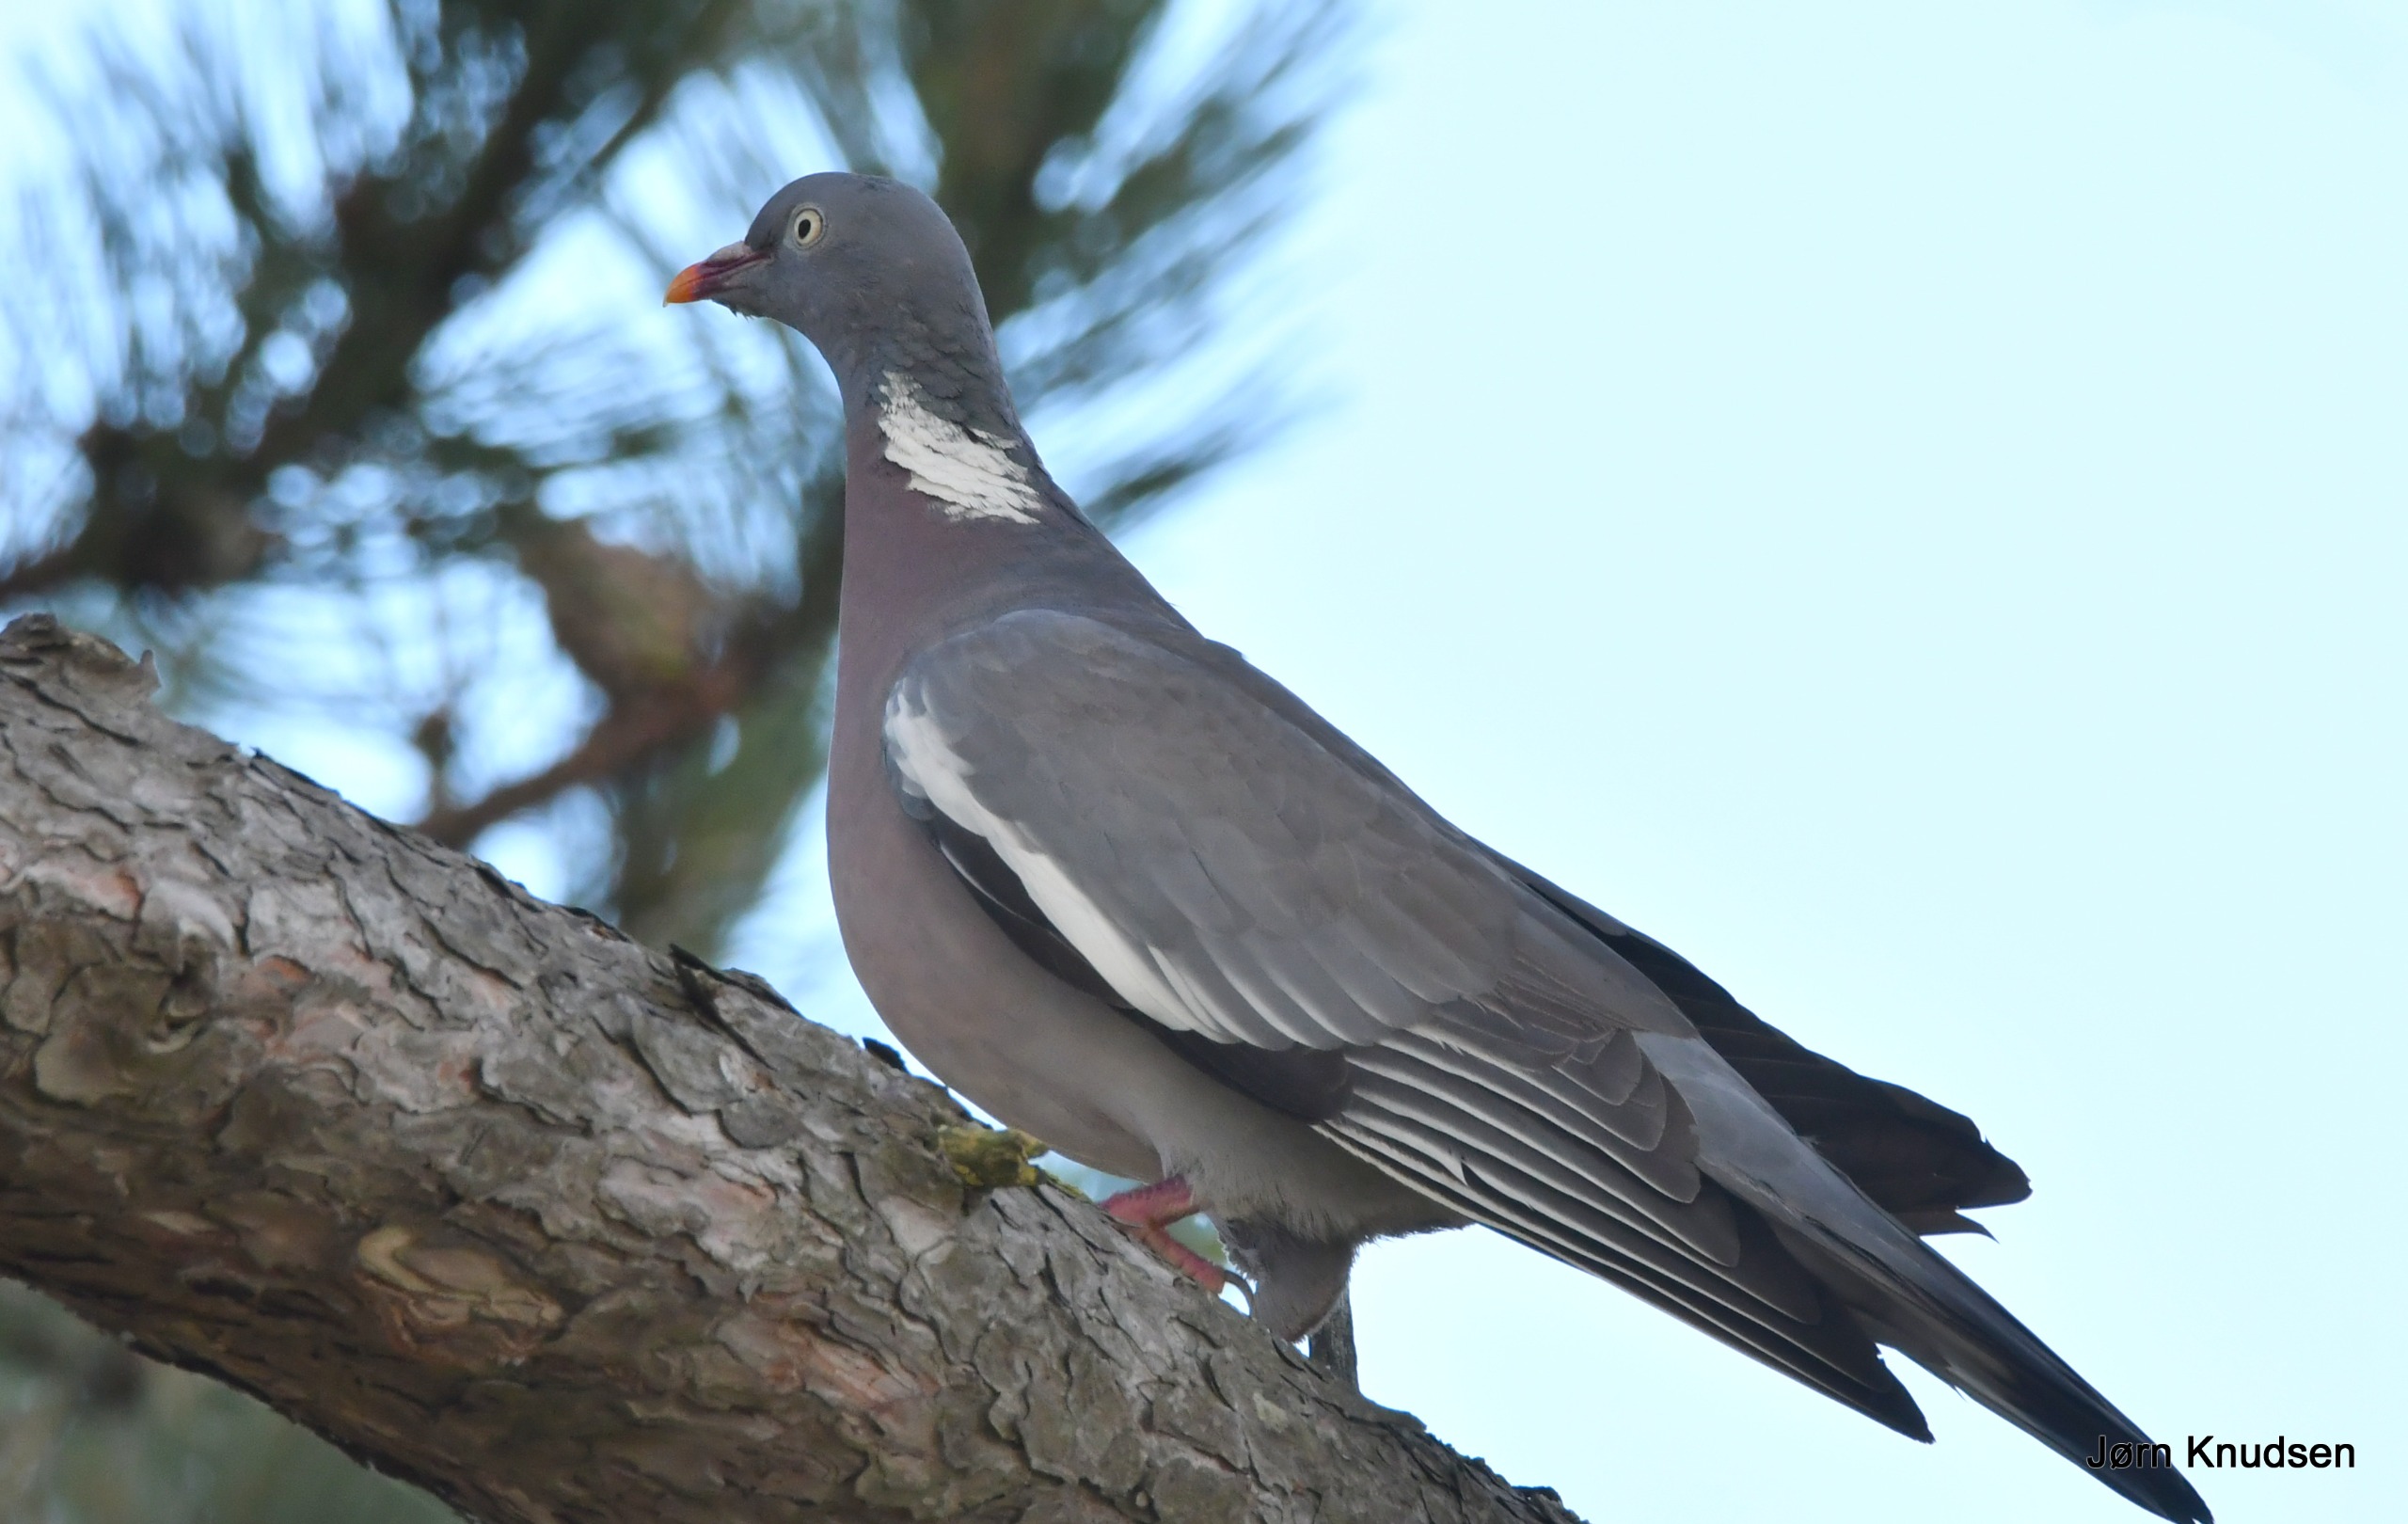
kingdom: Animalia
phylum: Chordata
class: Aves
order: Columbiformes
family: Columbidae
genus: Columba
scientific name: Columba palumbus
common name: Ringdue
